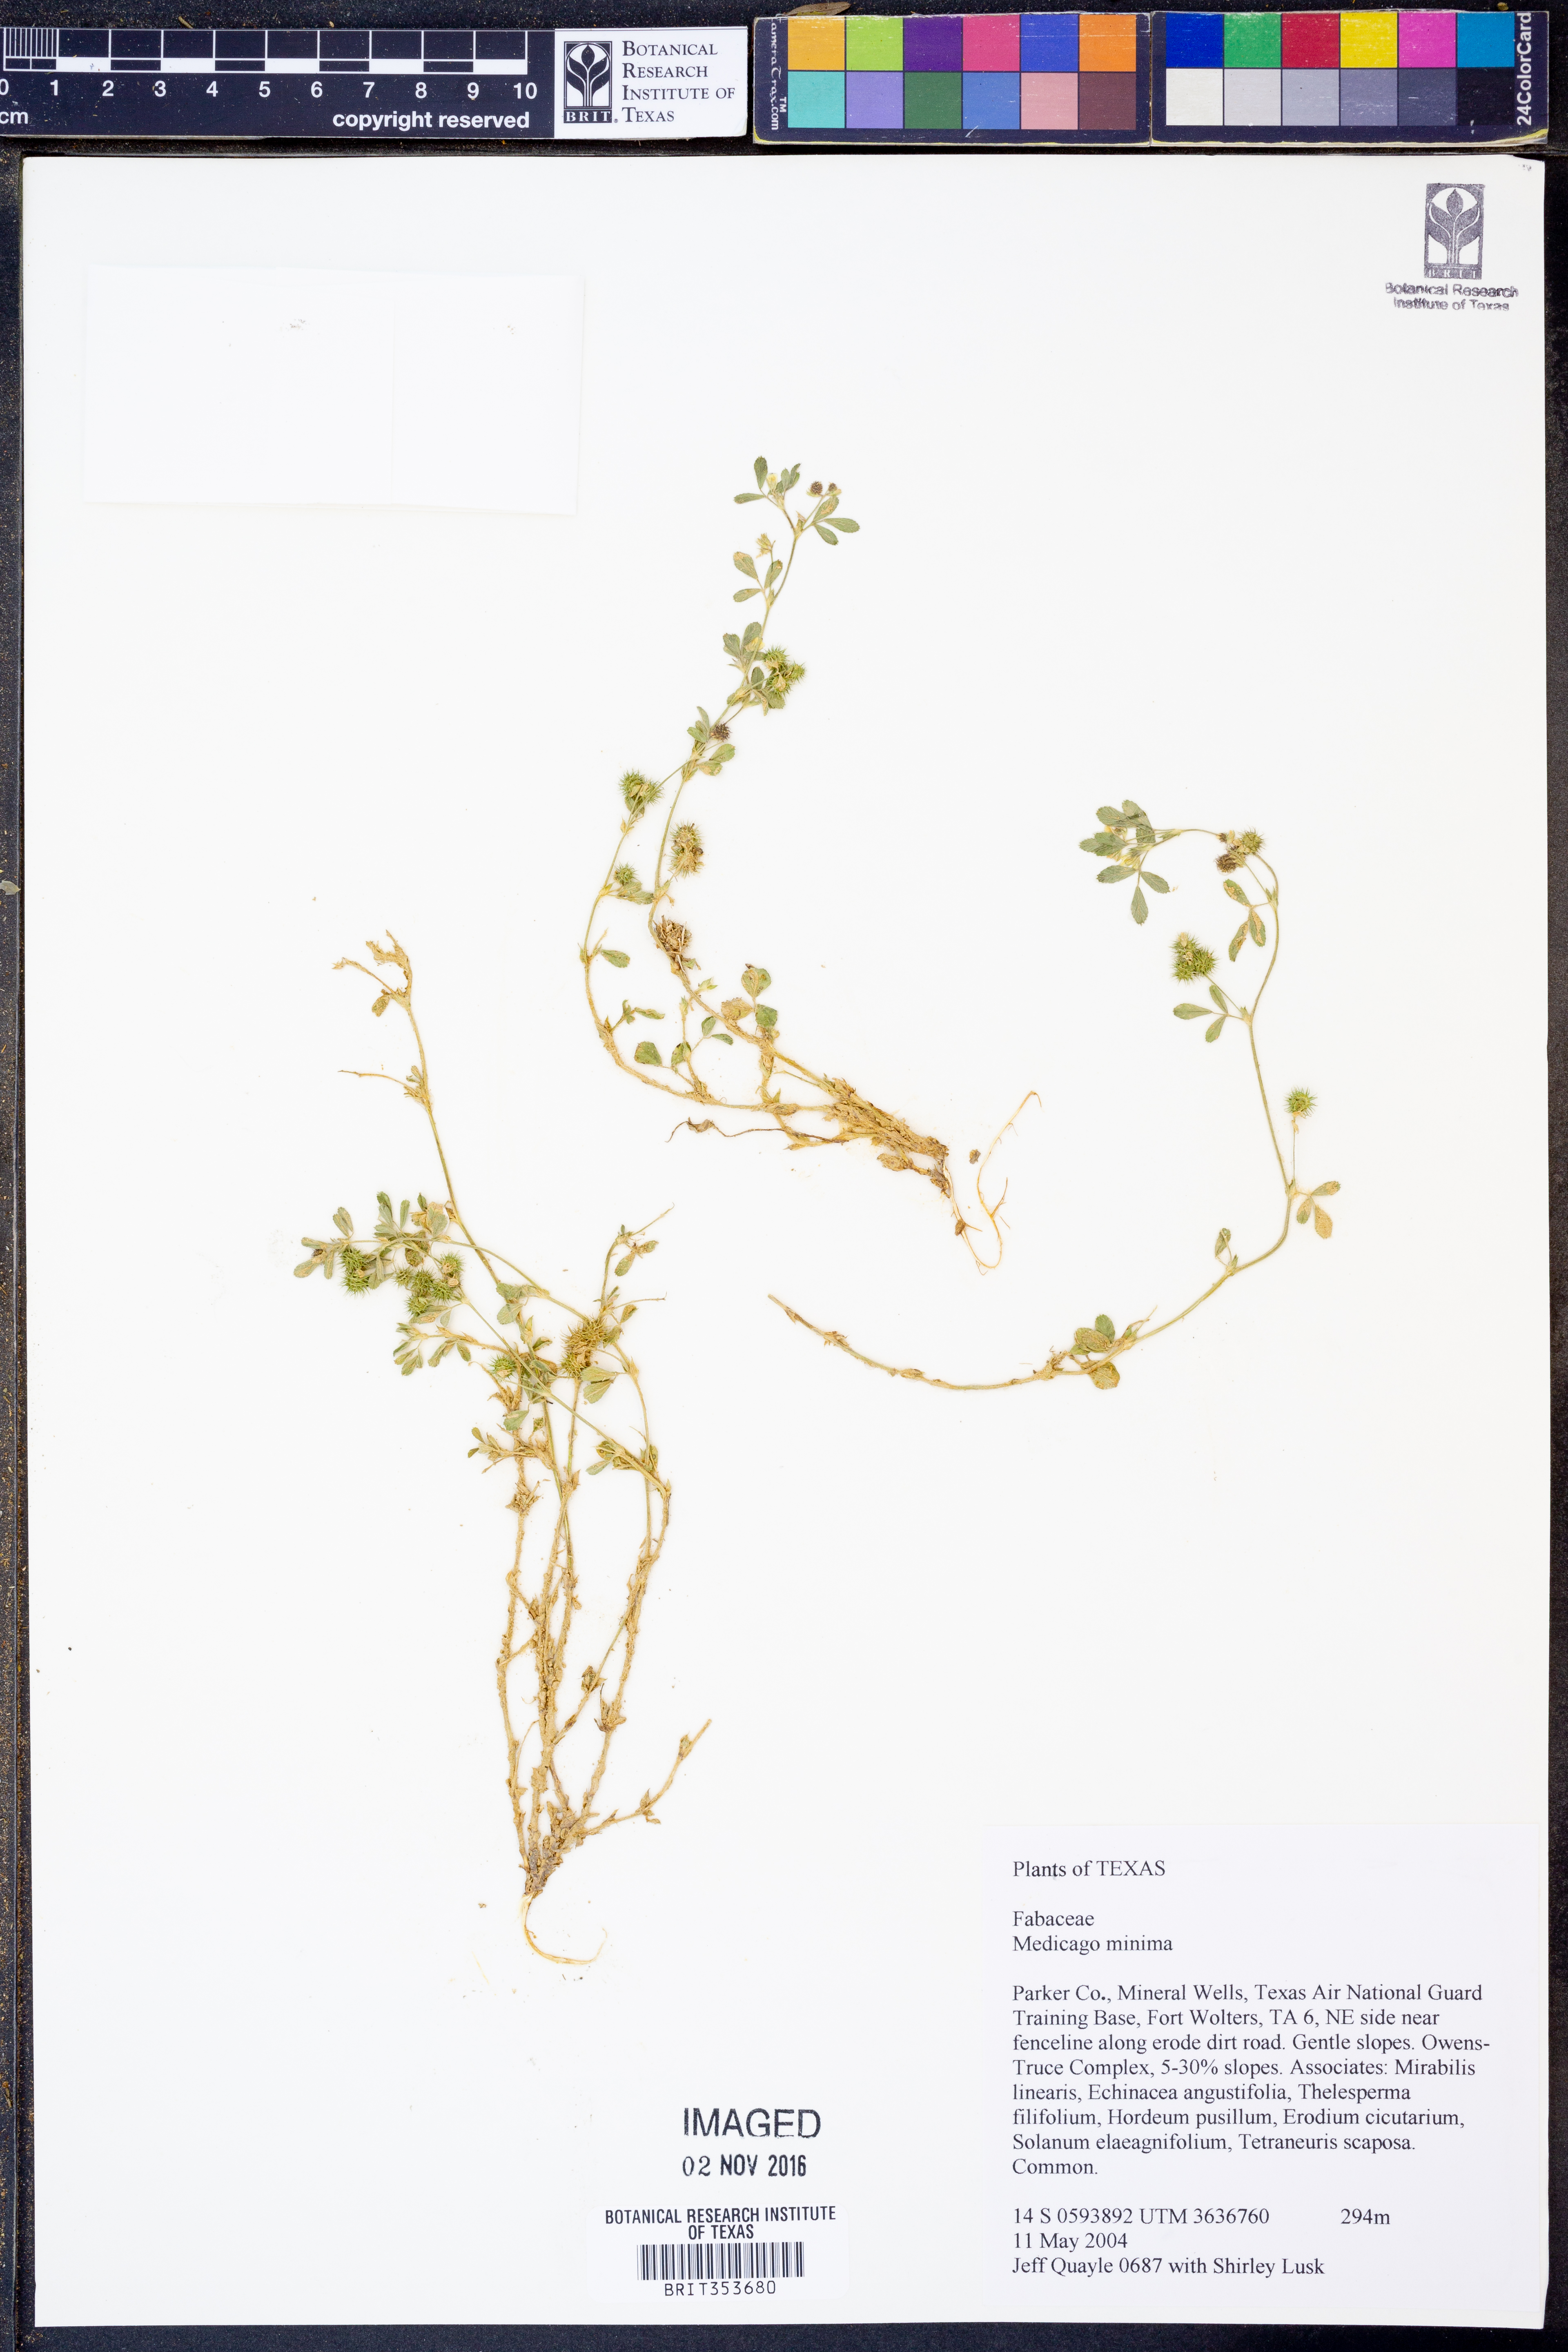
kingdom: Plantae
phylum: Tracheophyta
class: Magnoliopsida
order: Fabales
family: Fabaceae
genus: Medicago
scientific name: Medicago minima
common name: Little bur-clover
